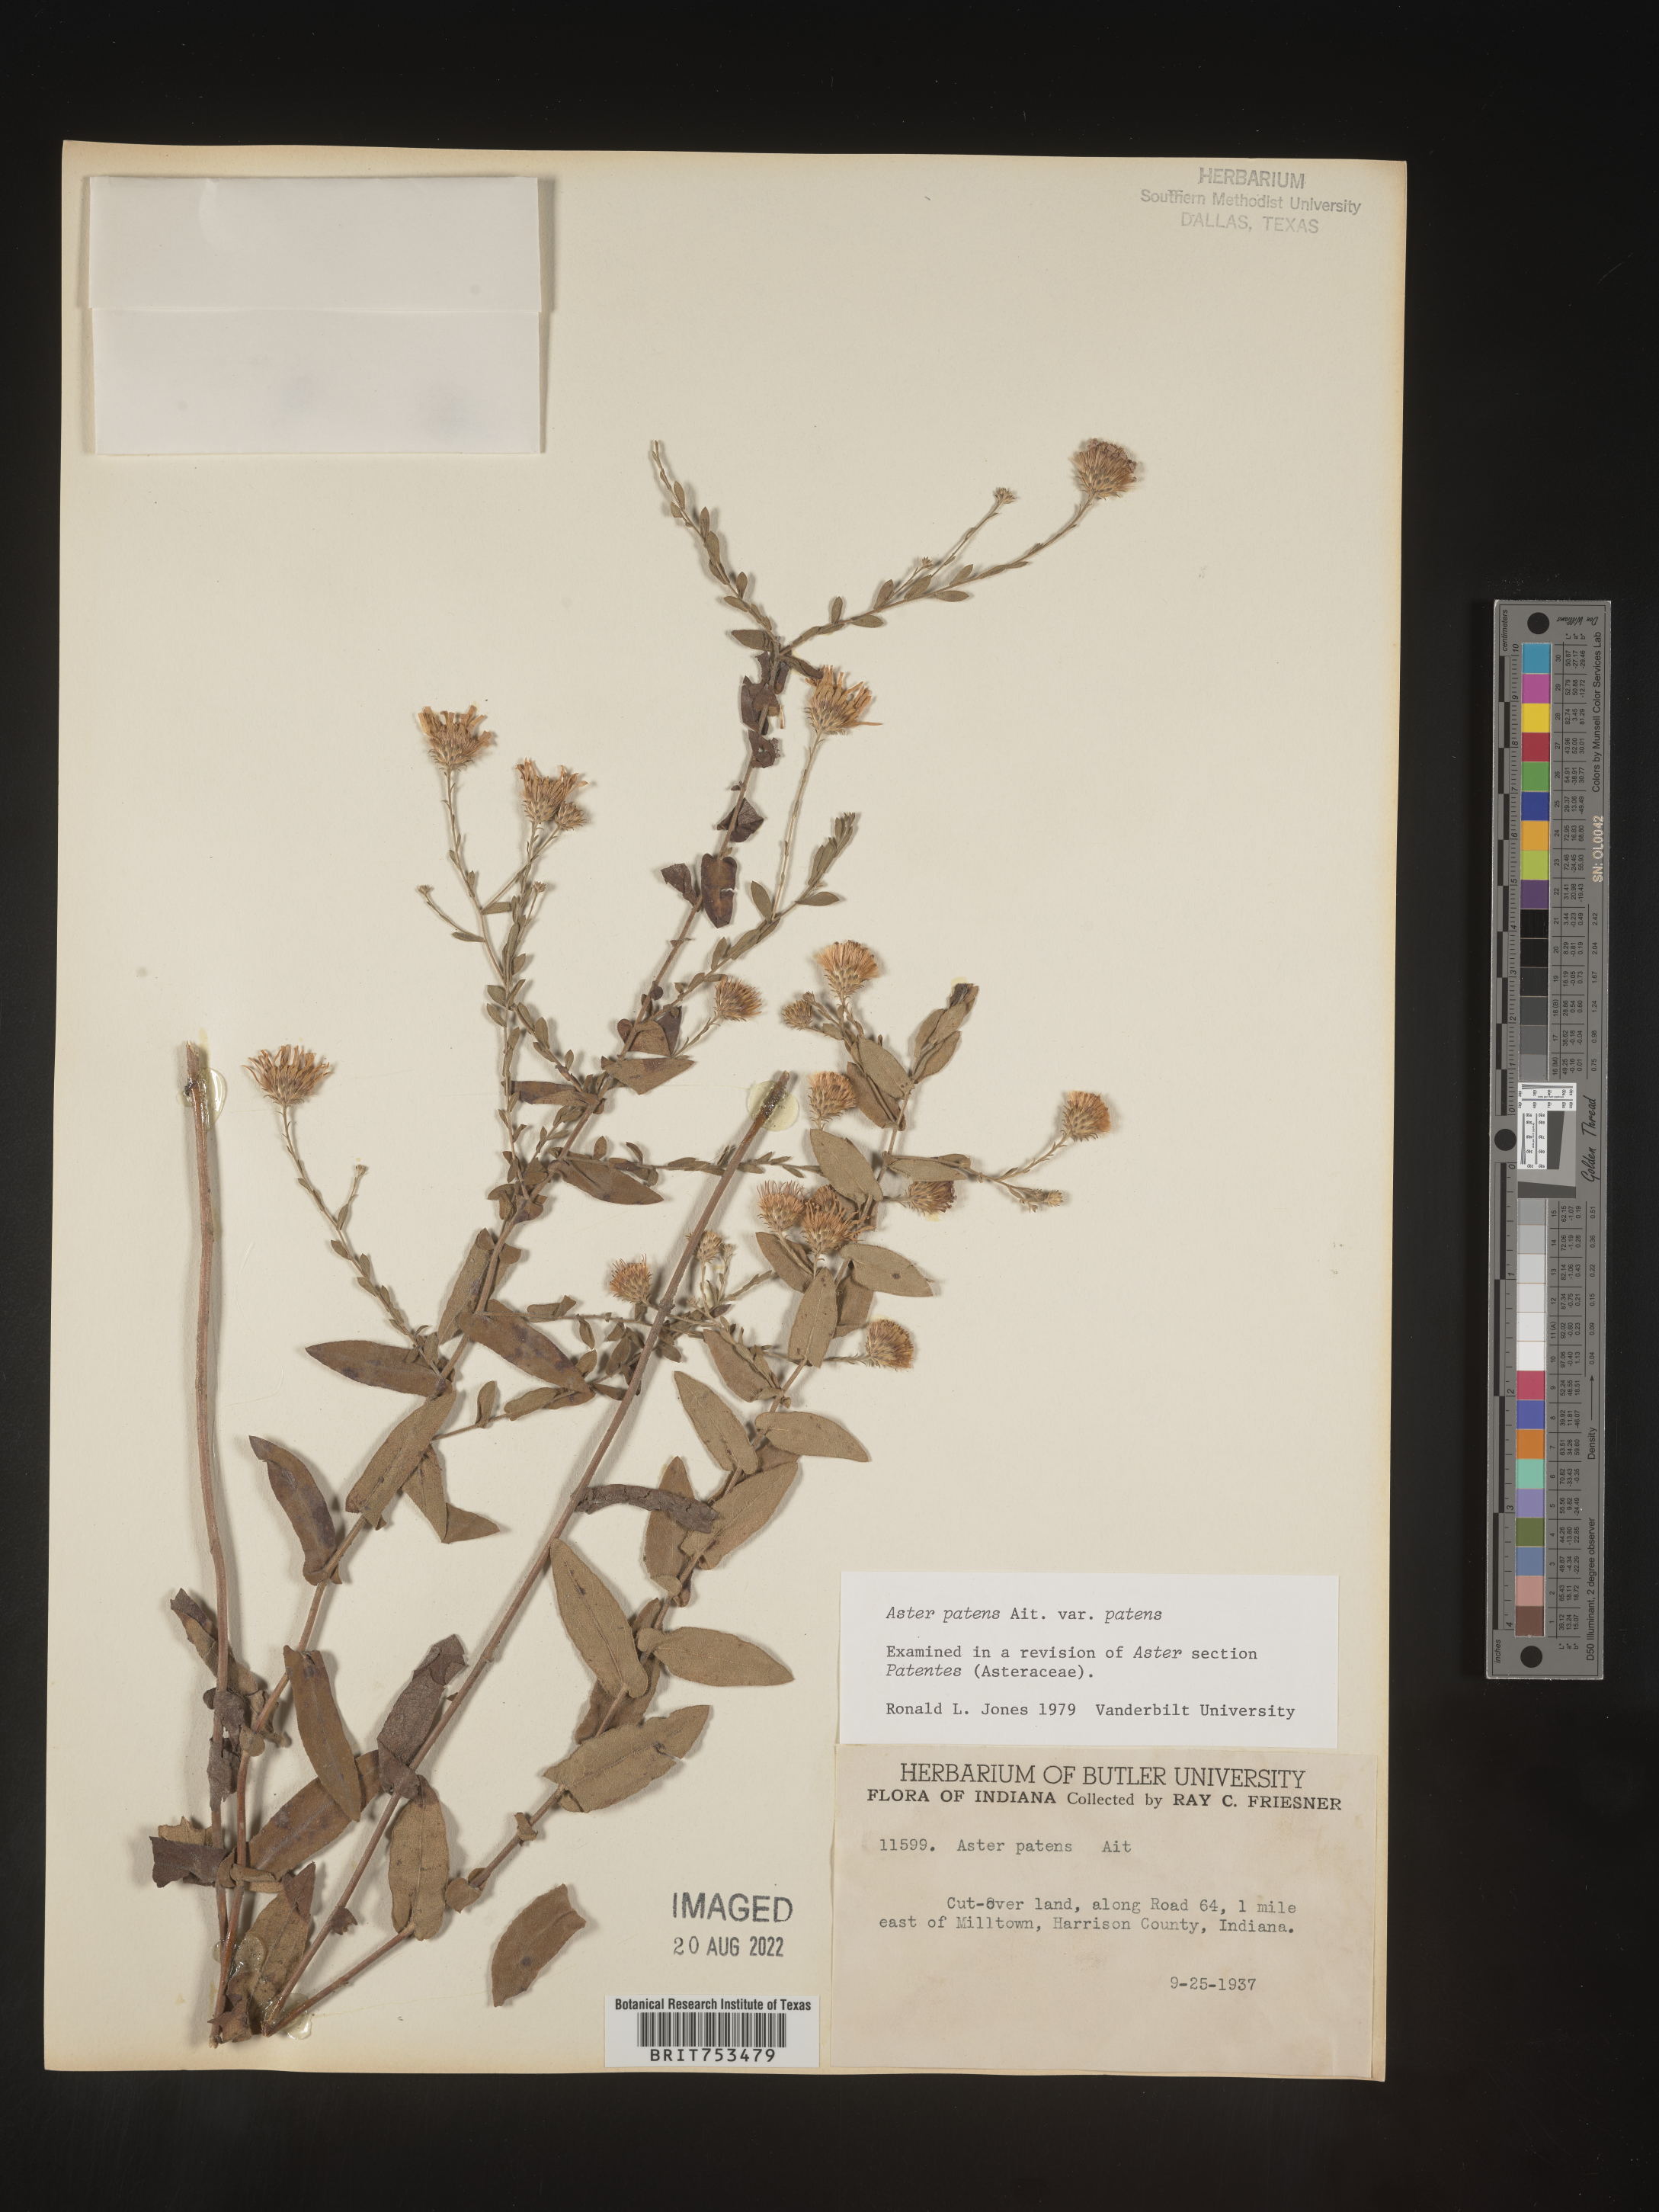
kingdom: Plantae
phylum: Tracheophyta
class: Magnoliopsida
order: Asterales
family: Asteraceae
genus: Symphyotrichum
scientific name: Symphyotrichum patens
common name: Late purple aster
